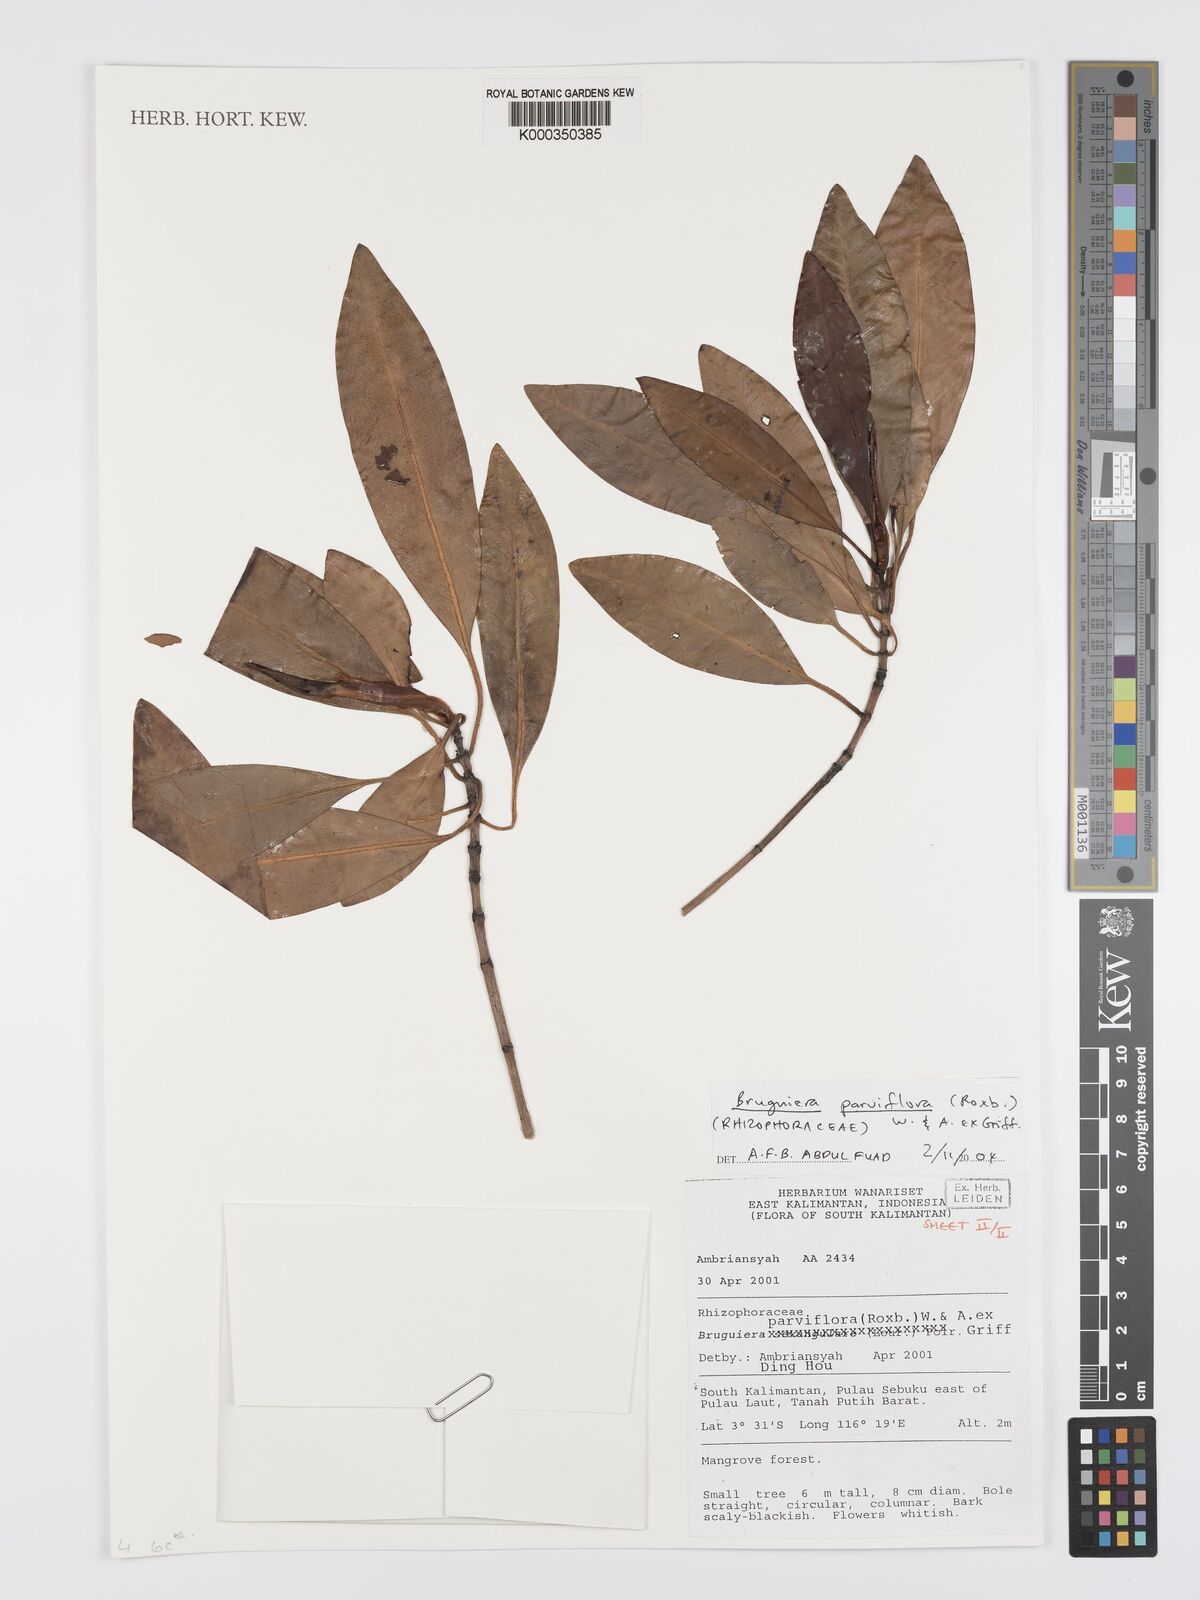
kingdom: Plantae
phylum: Tracheophyta
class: Magnoliopsida
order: Malpighiales
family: Rhizophoraceae
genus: Bruguiera
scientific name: Bruguiera parviflora
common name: Smallflower bruguiera
